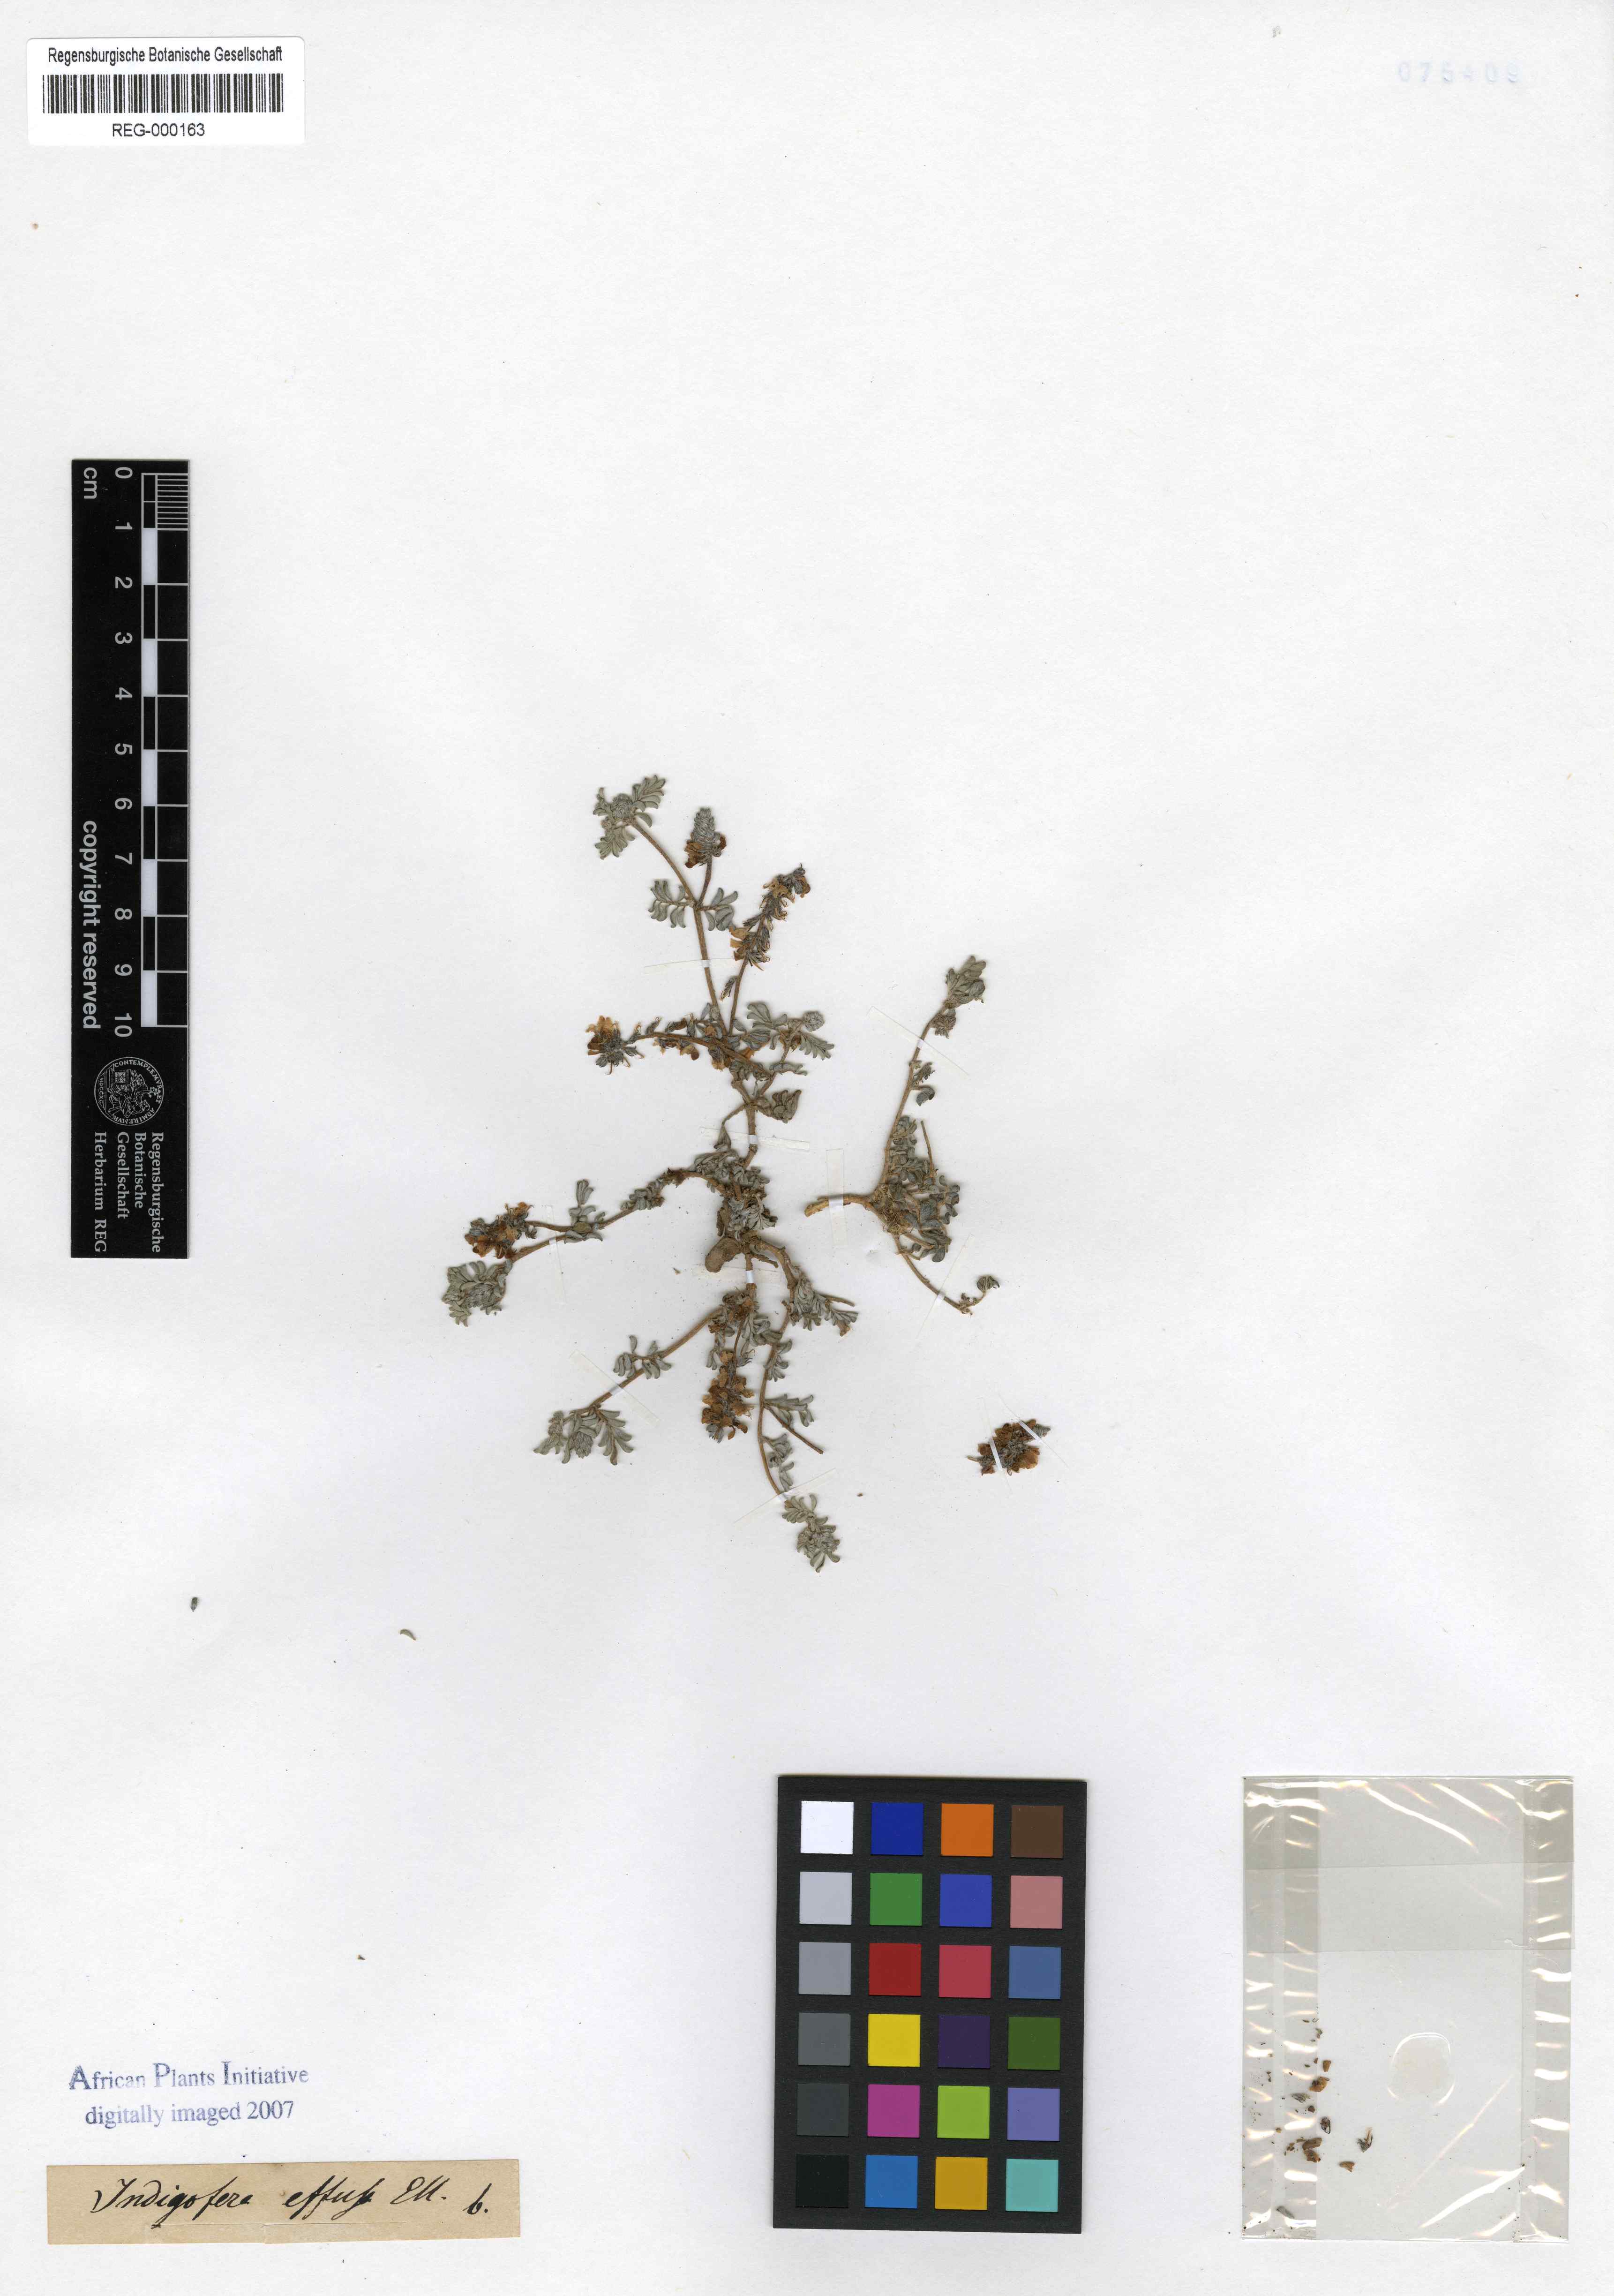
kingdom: Plantae
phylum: Tracheophyta
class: Magnoliopsida
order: Fabales
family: Fabaceae
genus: Indigofera
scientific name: Indigofera alternans
